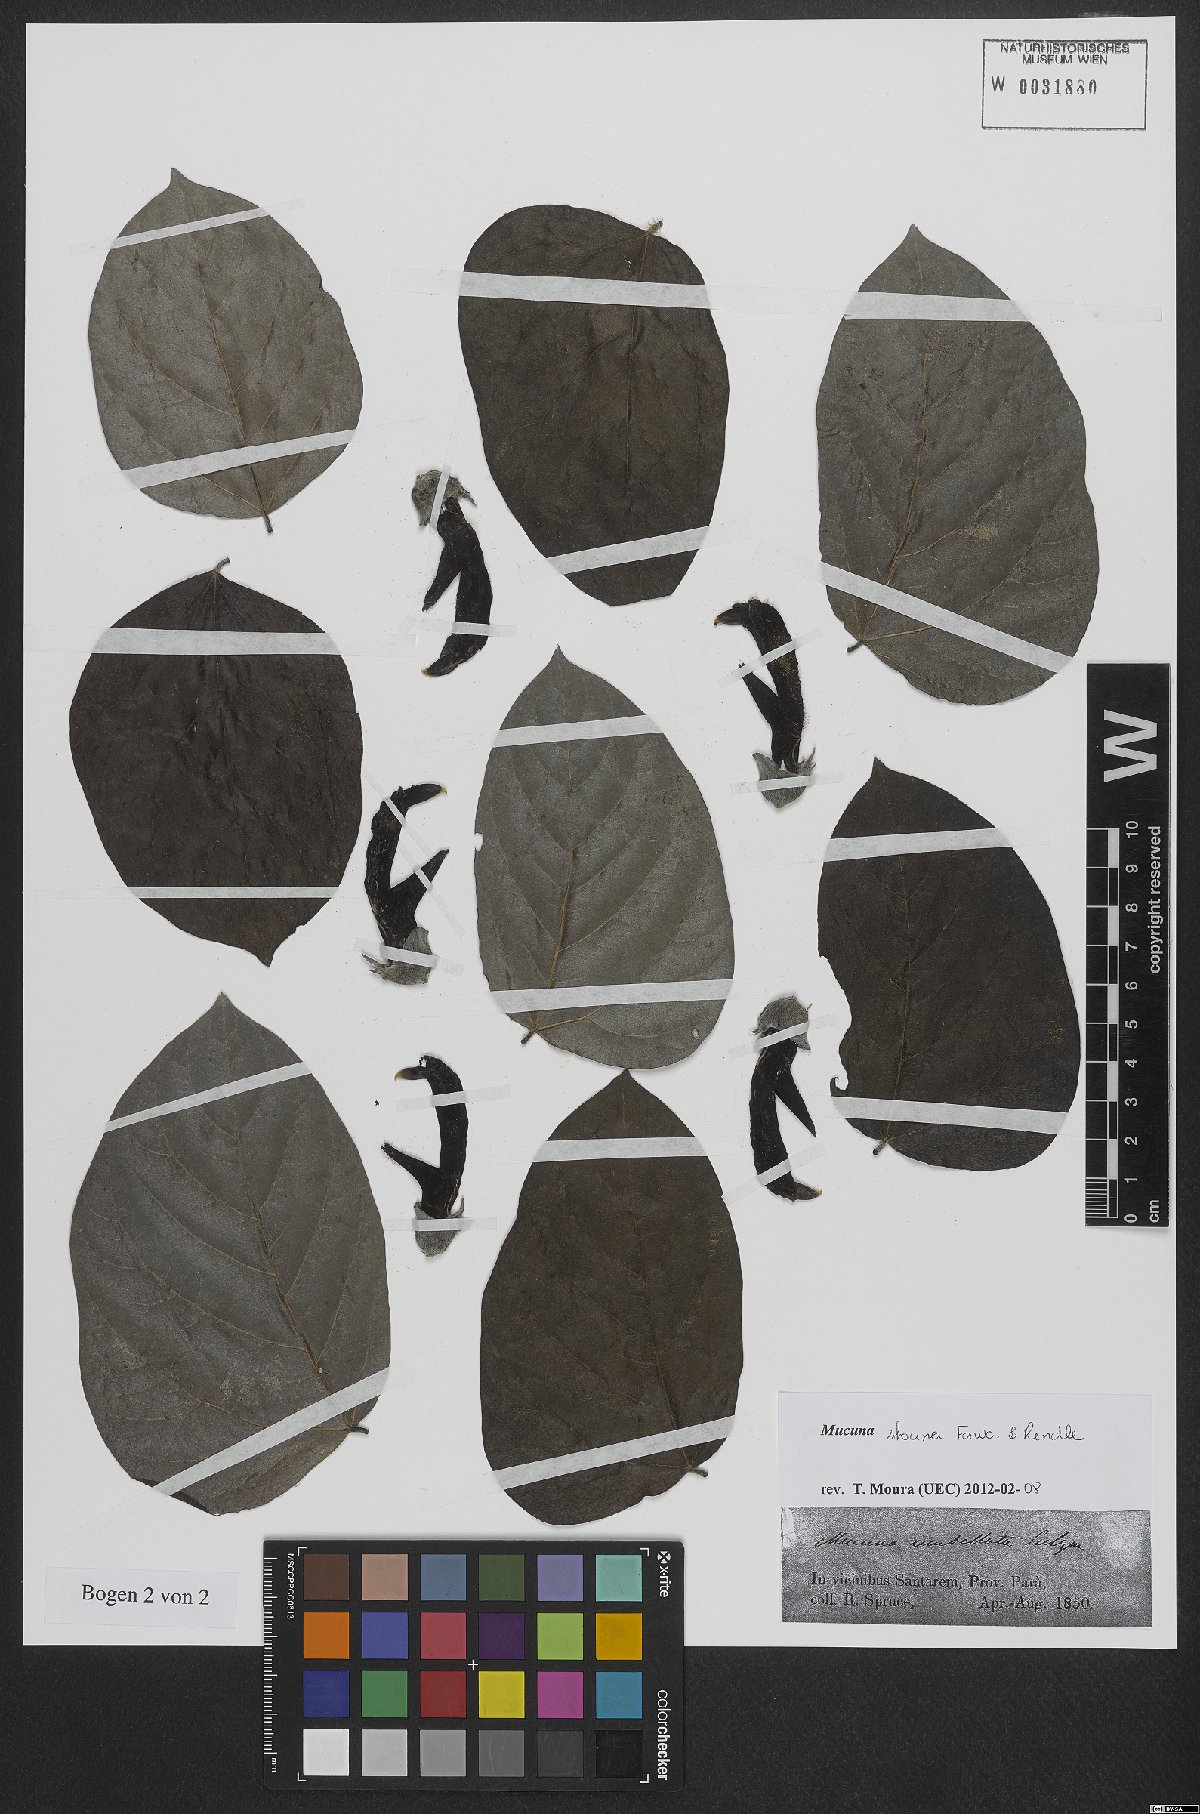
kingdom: Plantae
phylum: Tracheophyta
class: Magnoliopsida
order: Fabales
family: Fabaceae
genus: Mucuna
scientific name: Mucuna urens
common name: Red hamburger bean
